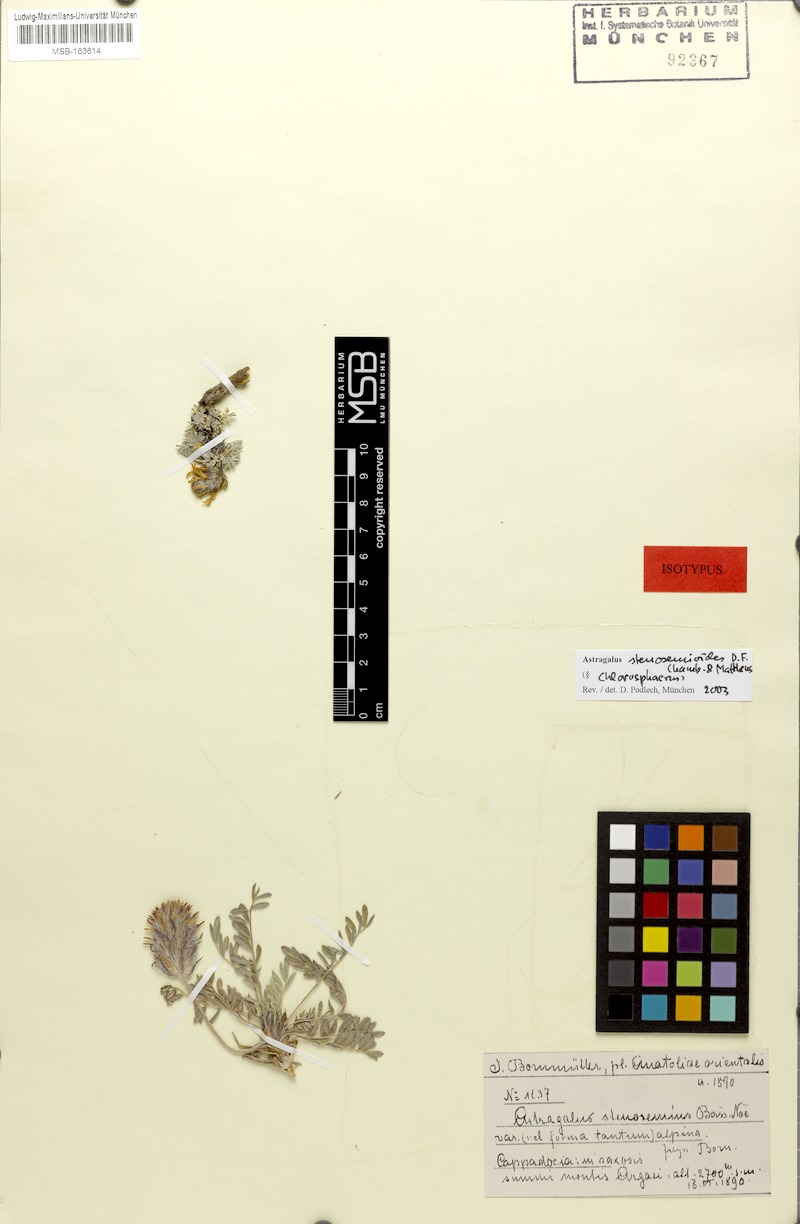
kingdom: Plantae
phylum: Tracheophyta
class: Magnoliopsida
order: Fabales
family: Fabaceae
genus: Astragalus
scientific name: Astragalus stenosemioides
